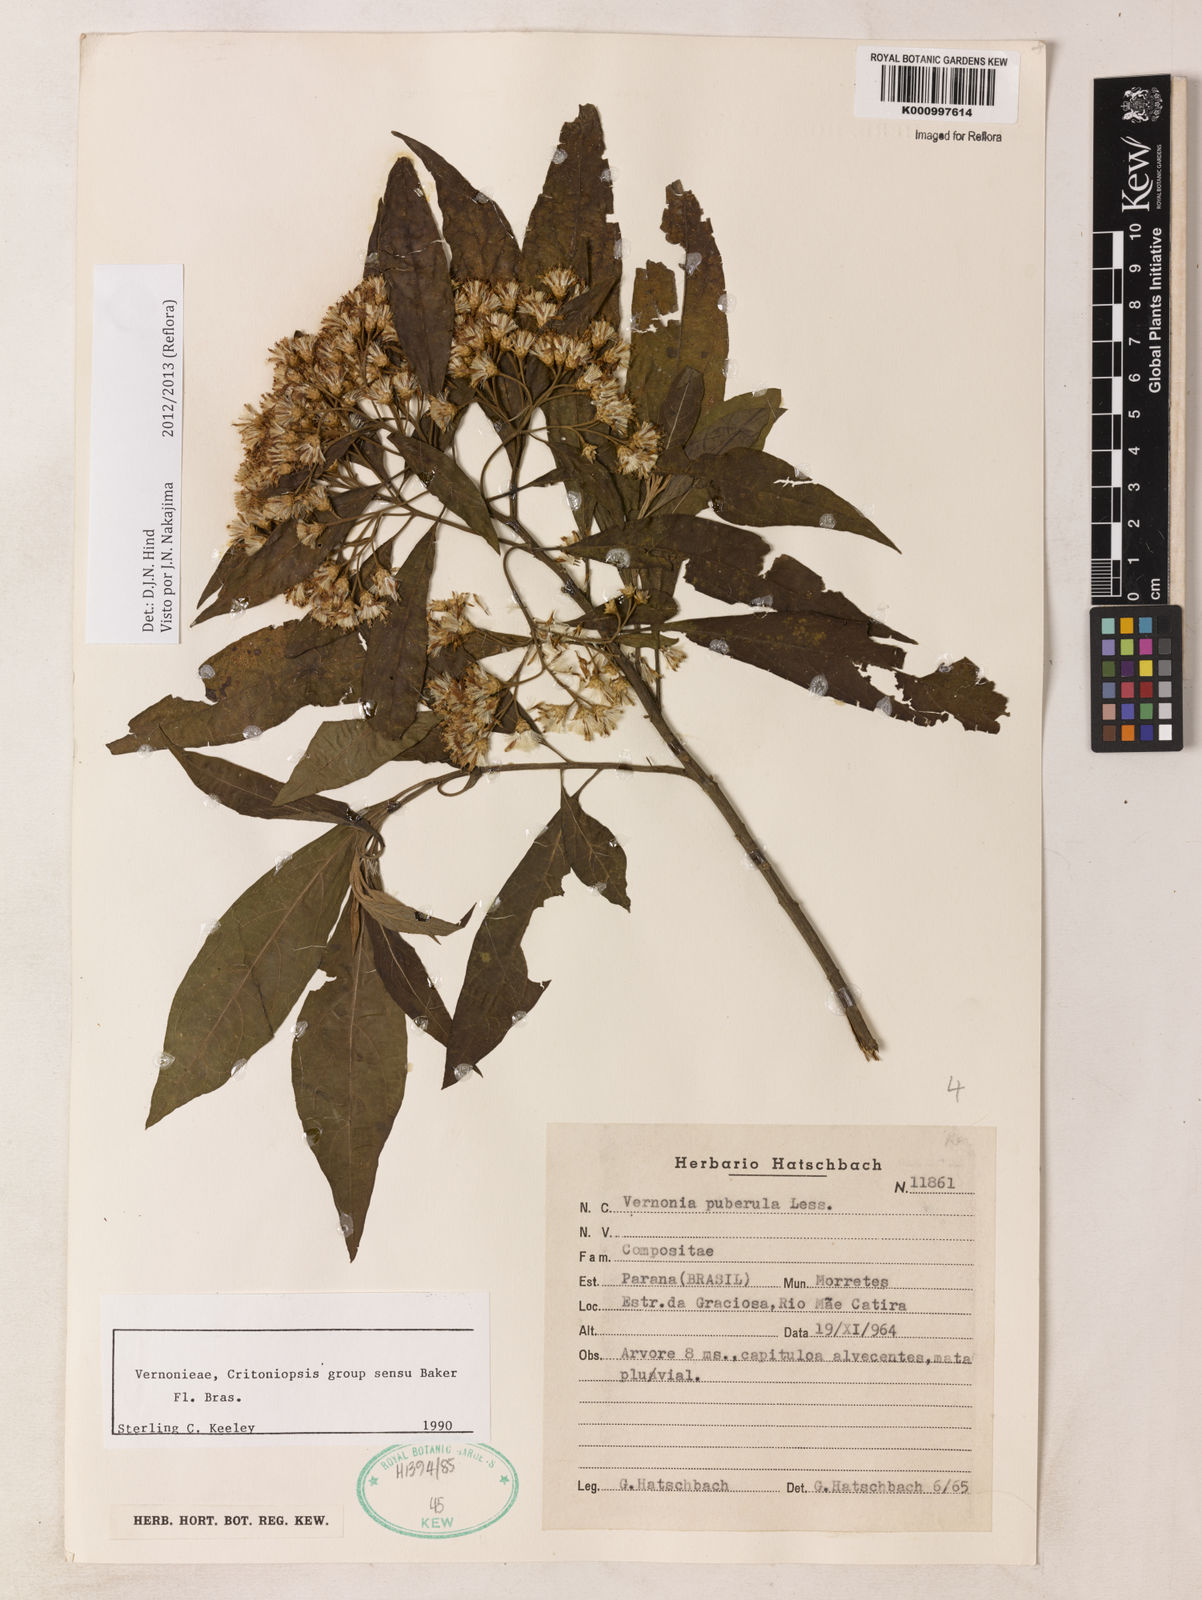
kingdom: Plantae
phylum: Tracheophyta
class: Magnoliopsida
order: Asterales
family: Asteraceae
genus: Vernonanthura
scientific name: Vernonanthura puberula
